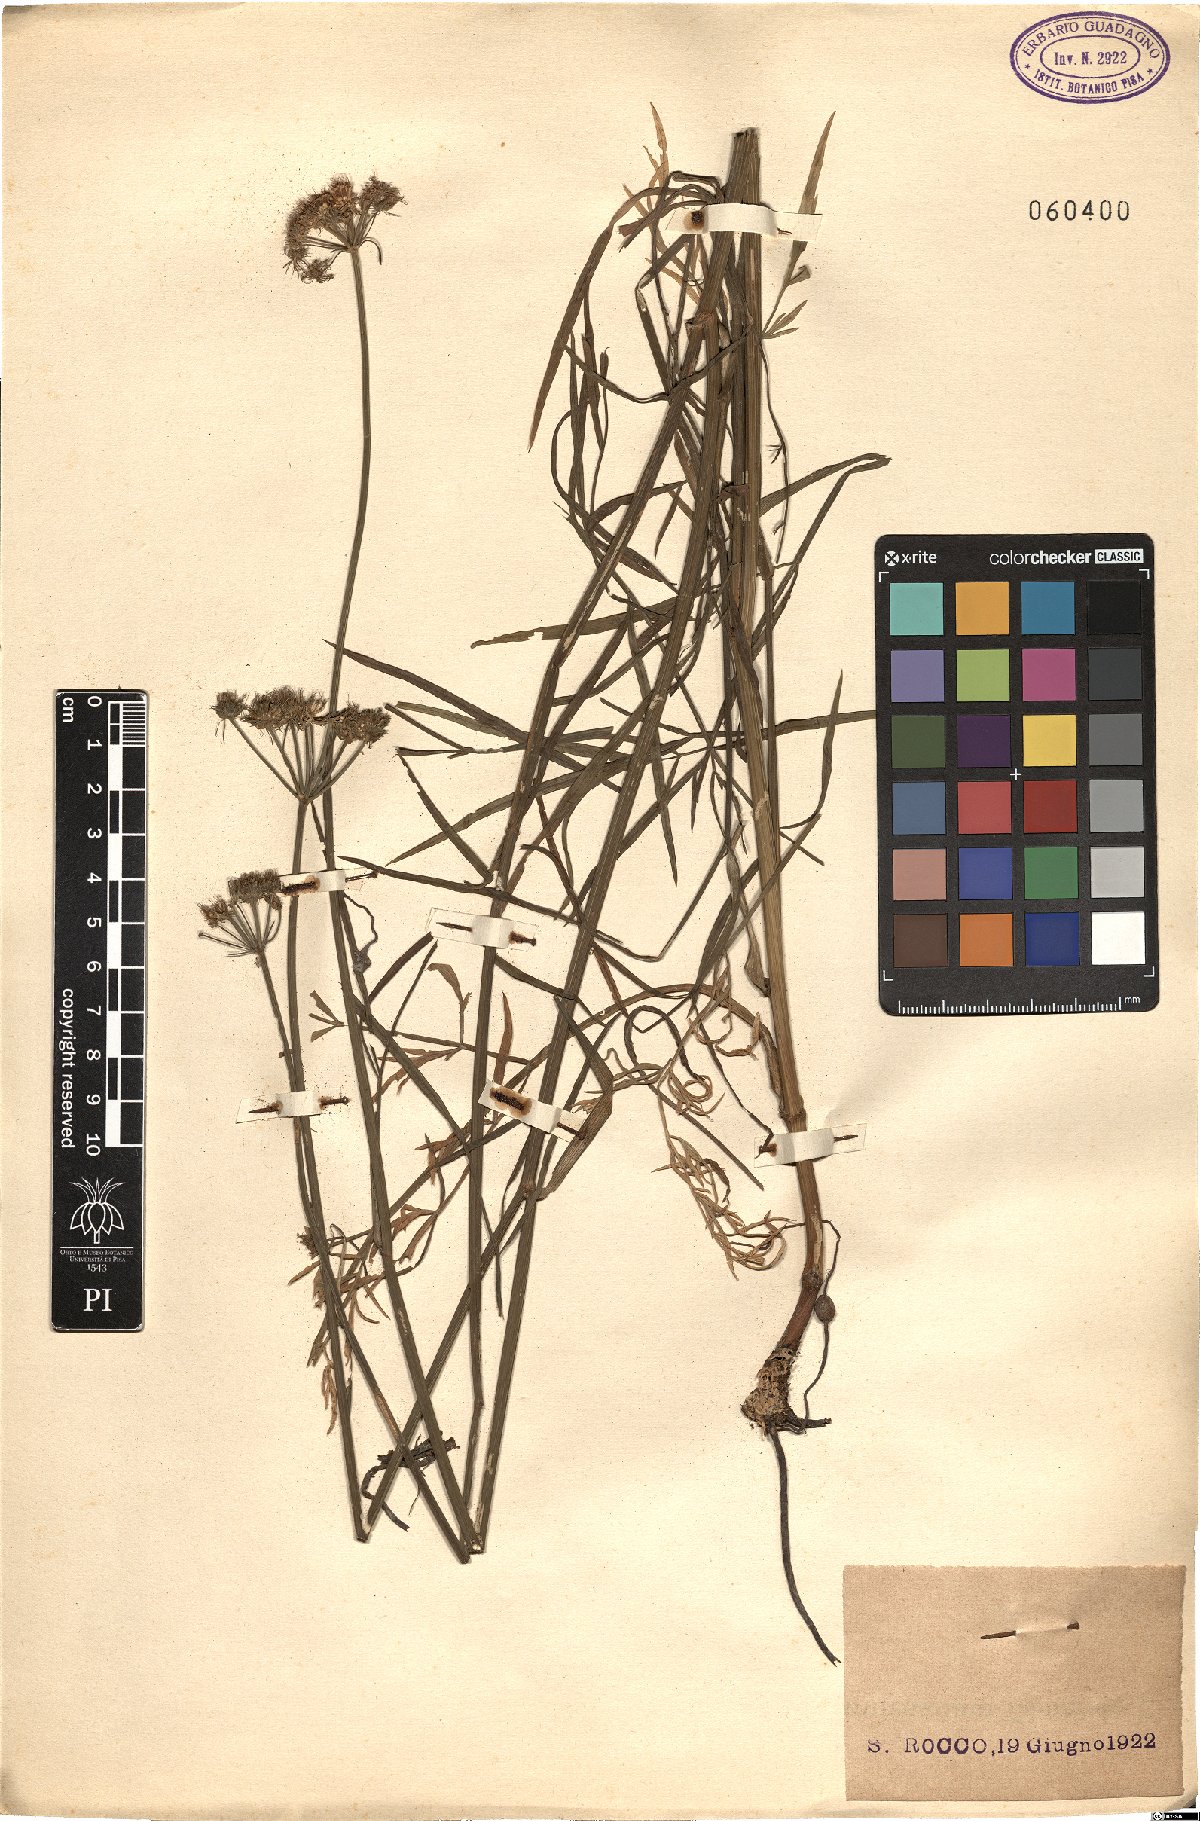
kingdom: Plantae
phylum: Tracheophyta
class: Magnoliopsida
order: Apiales
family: Apiaceae
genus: Oenanthe
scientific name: Oenanthe pimpinelloides
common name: Corky-fruited water-dropwort
